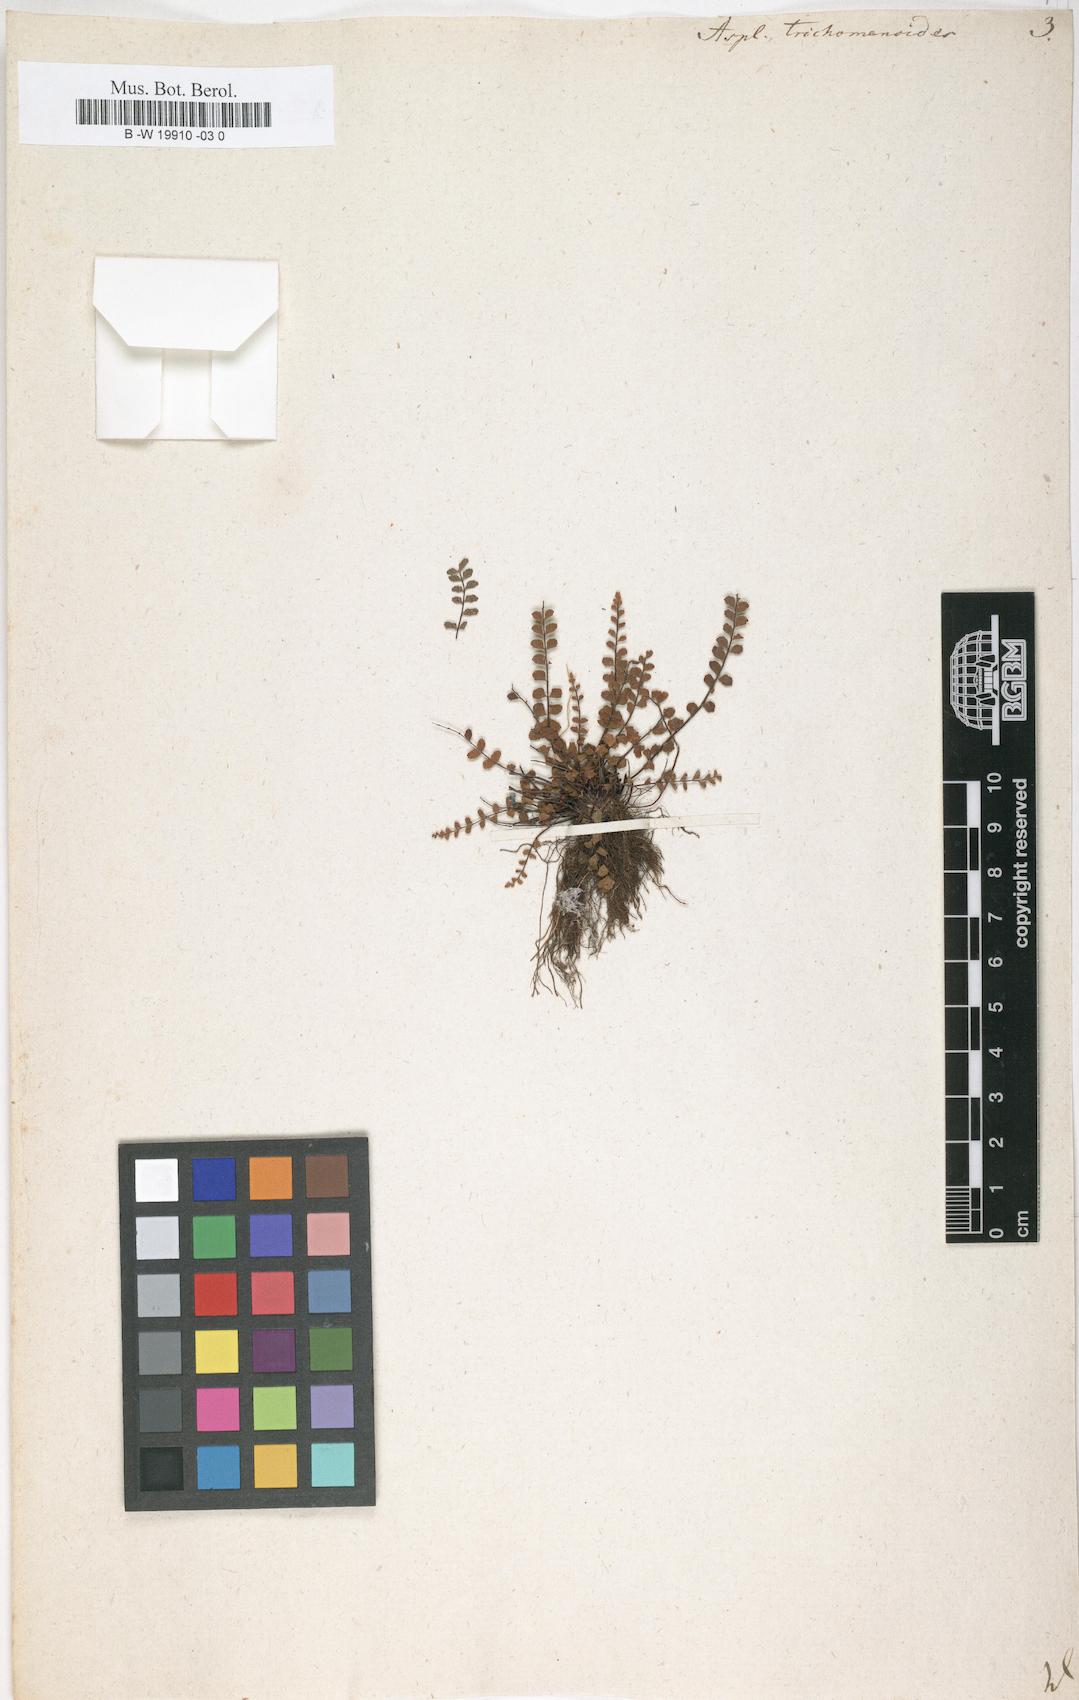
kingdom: Plantae
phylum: Tracheophyta
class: Polypodiopsida
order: Polypodiales
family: Aspleniaceae
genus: Asplenium
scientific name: Asplenium trichomanoides
